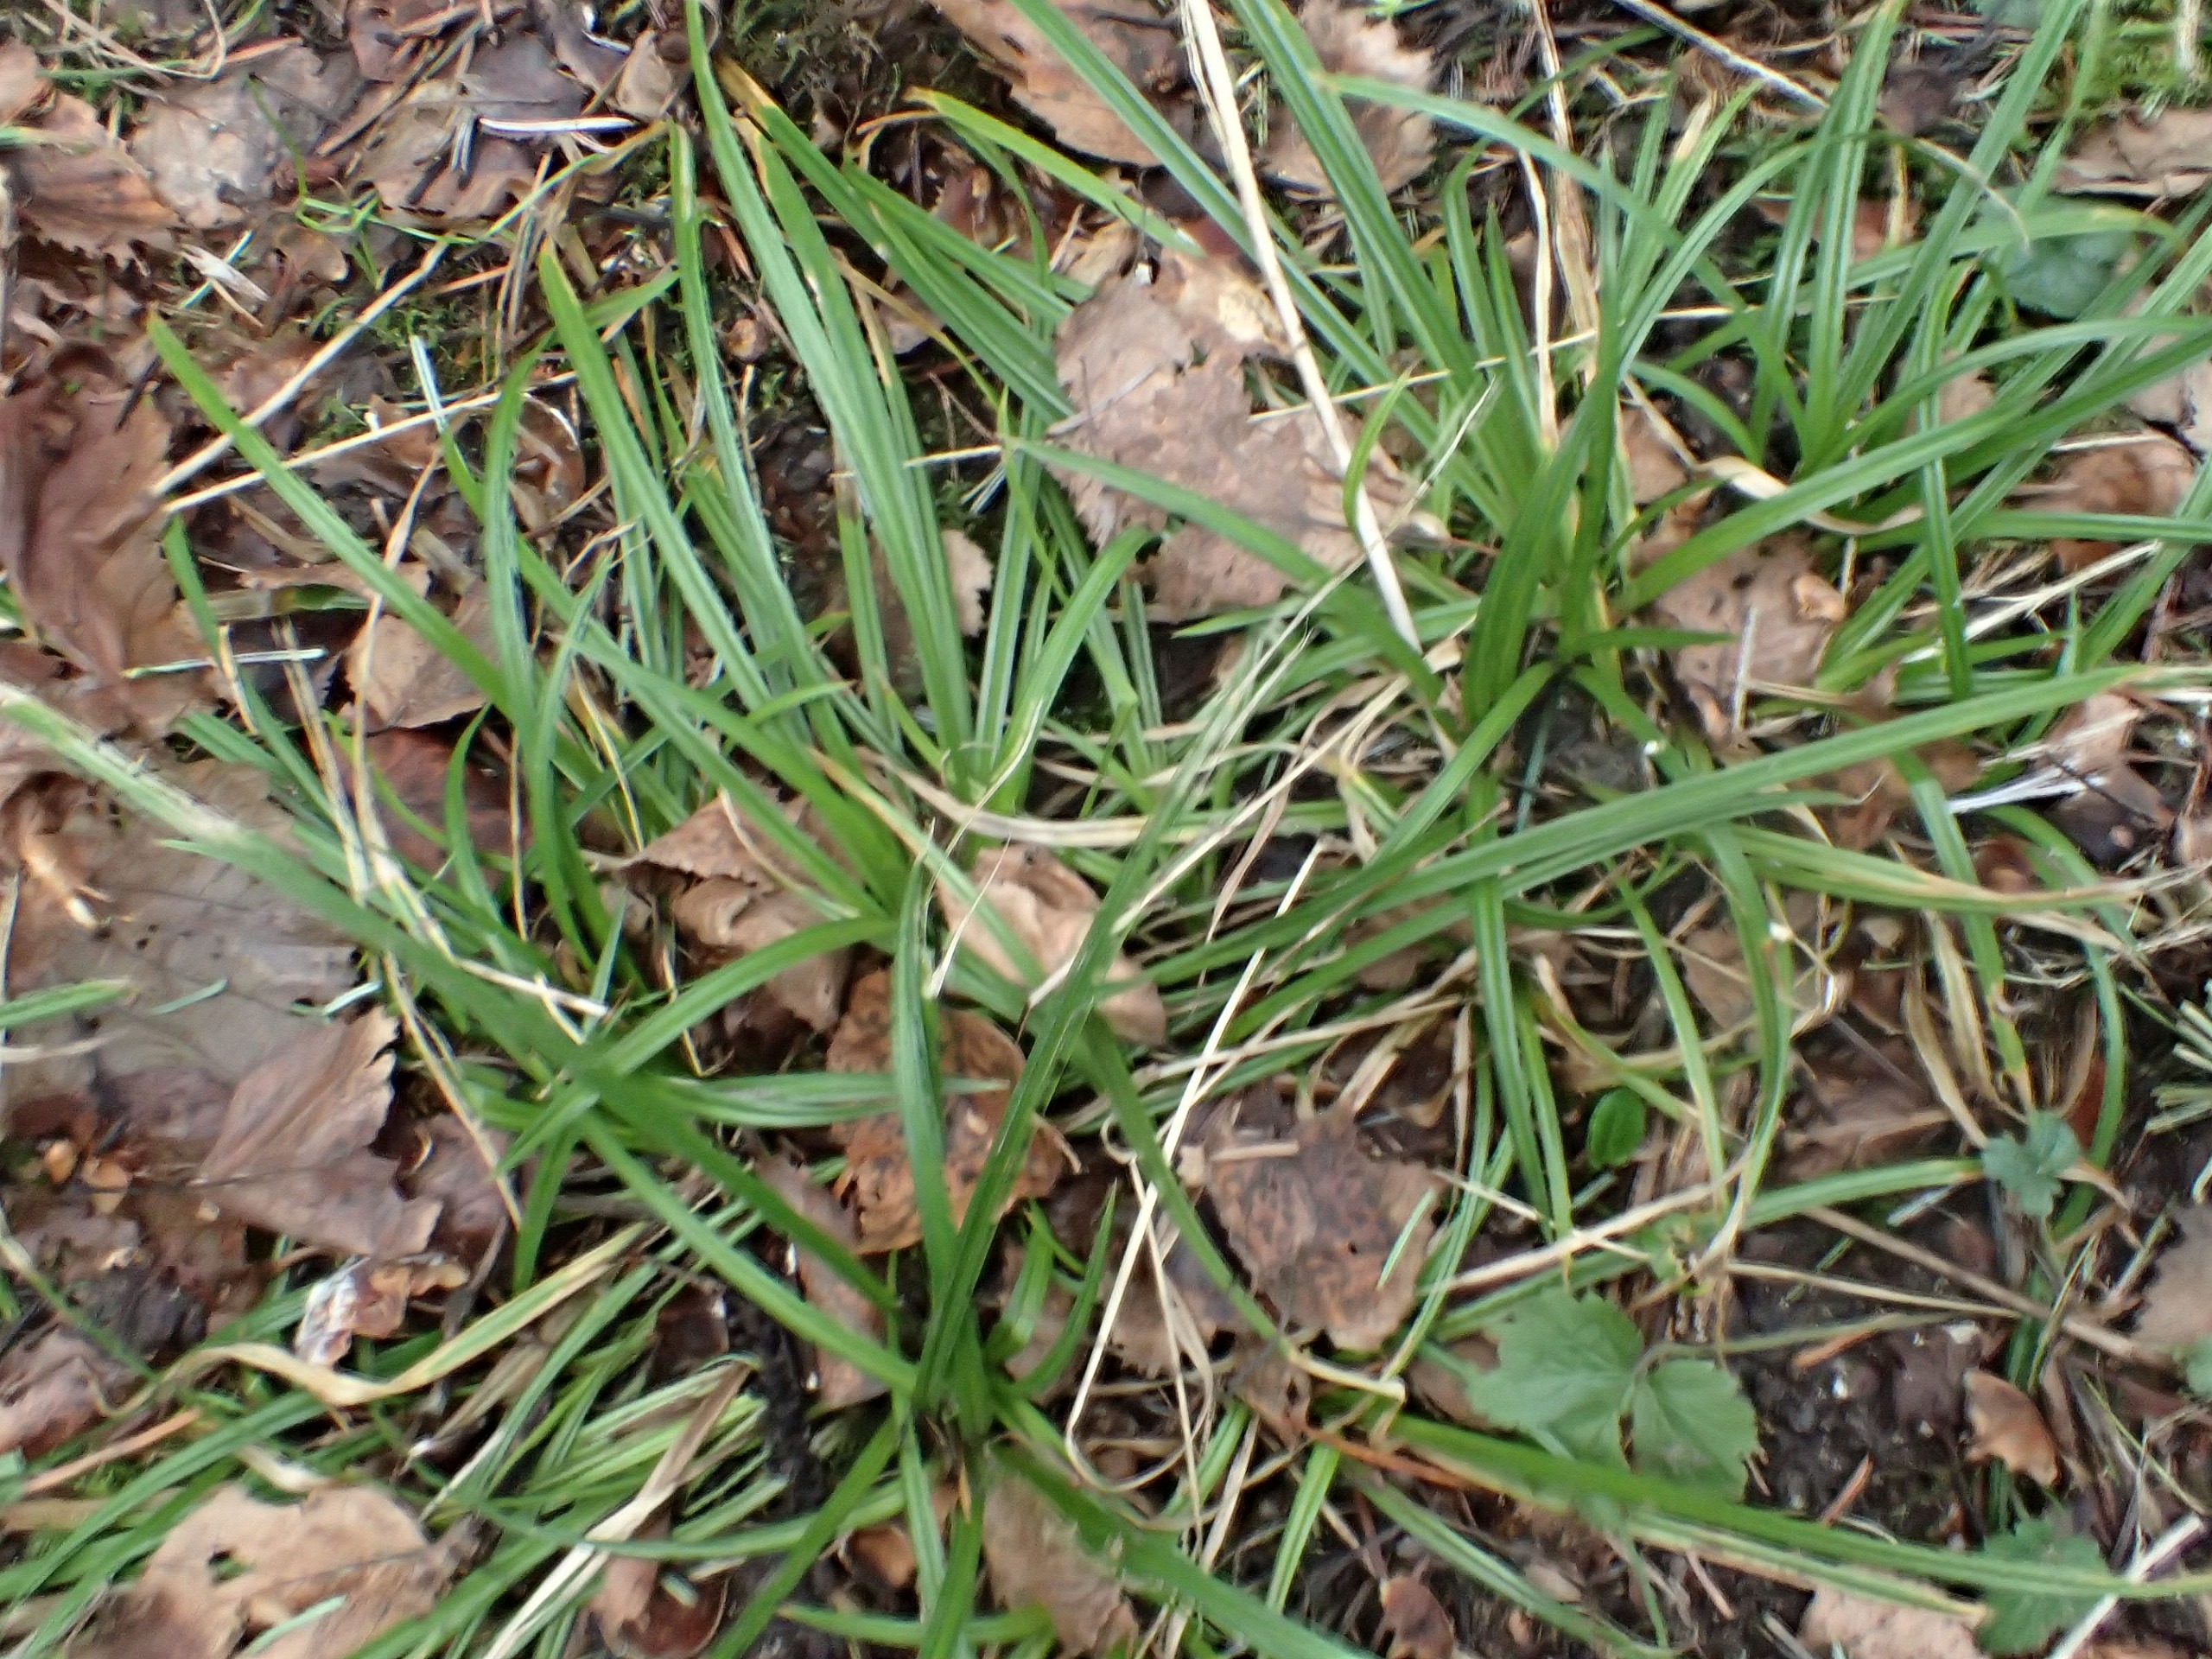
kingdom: Plantae
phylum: Tracheophyta
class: Liliopsida
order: Poales
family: Cyperaceae
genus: Carex
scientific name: Carex sylvatica
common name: Skov-star
